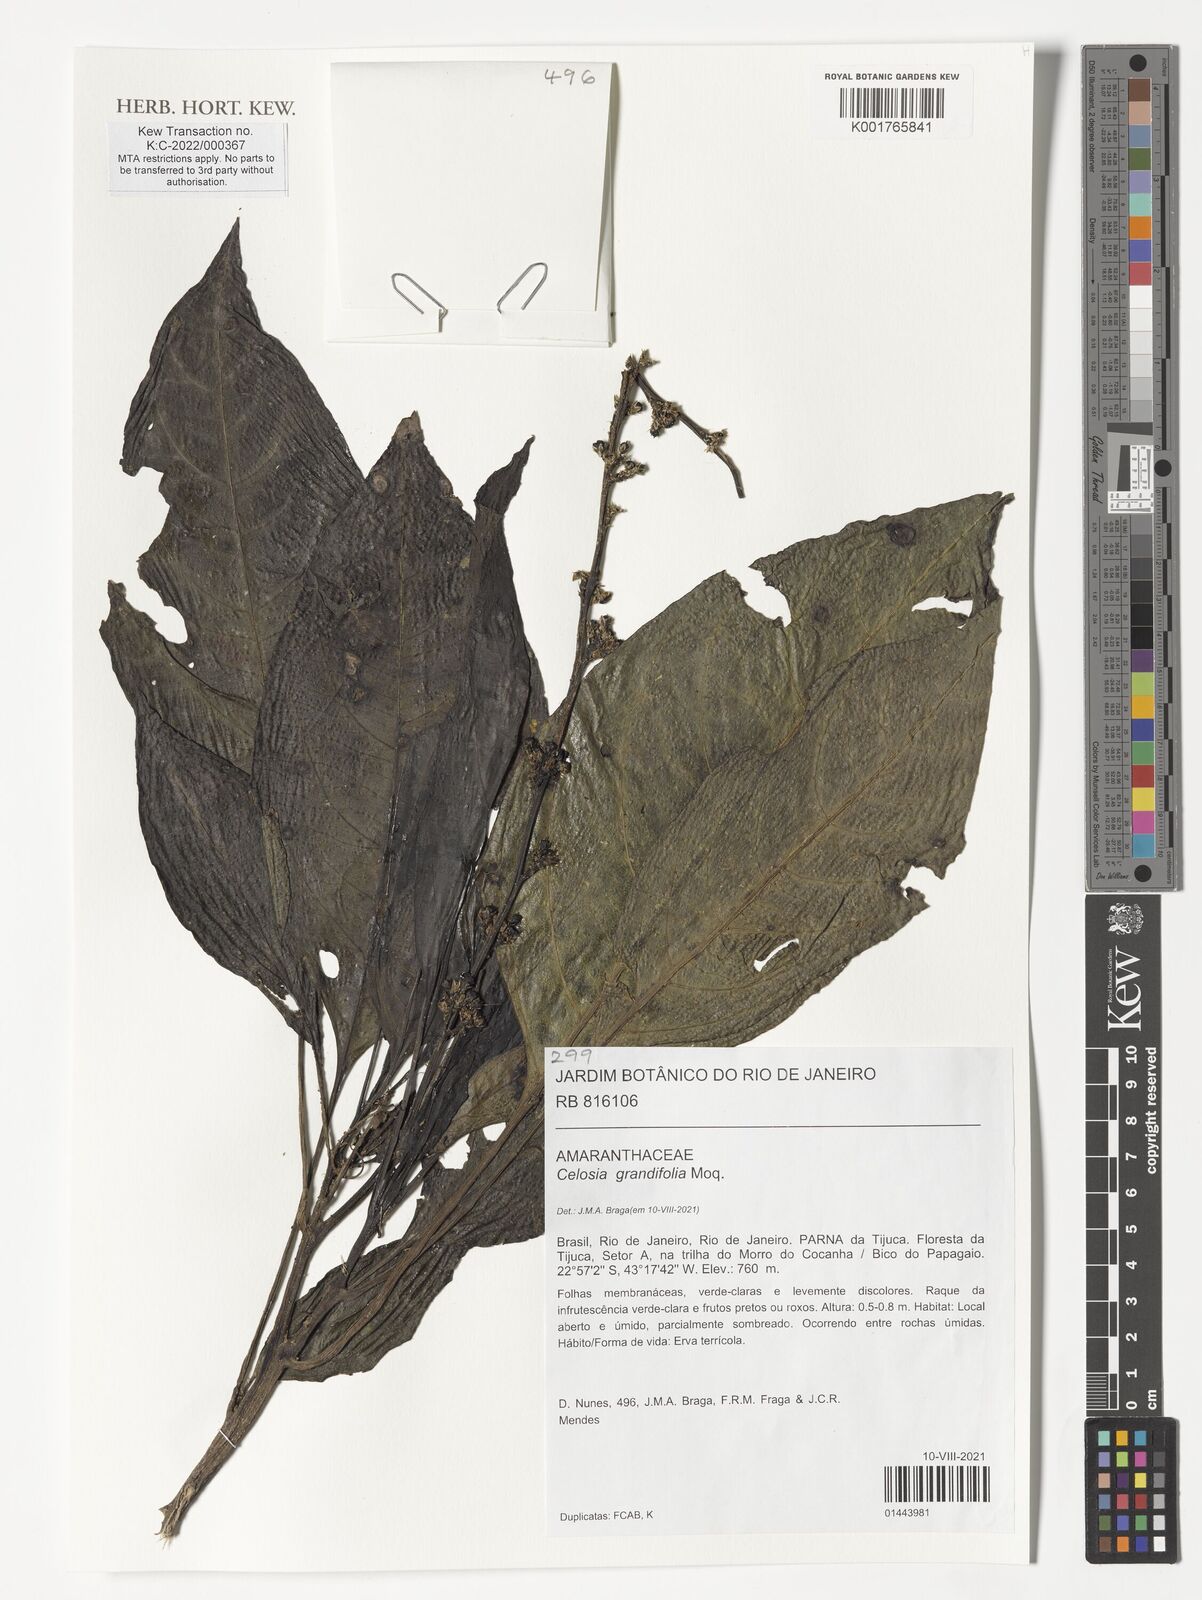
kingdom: Plantae
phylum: Tracheophyta
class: Magnoliopsida
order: Caryophyllales
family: Amaranthaceae
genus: Celosia
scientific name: Celosia grandifolia
